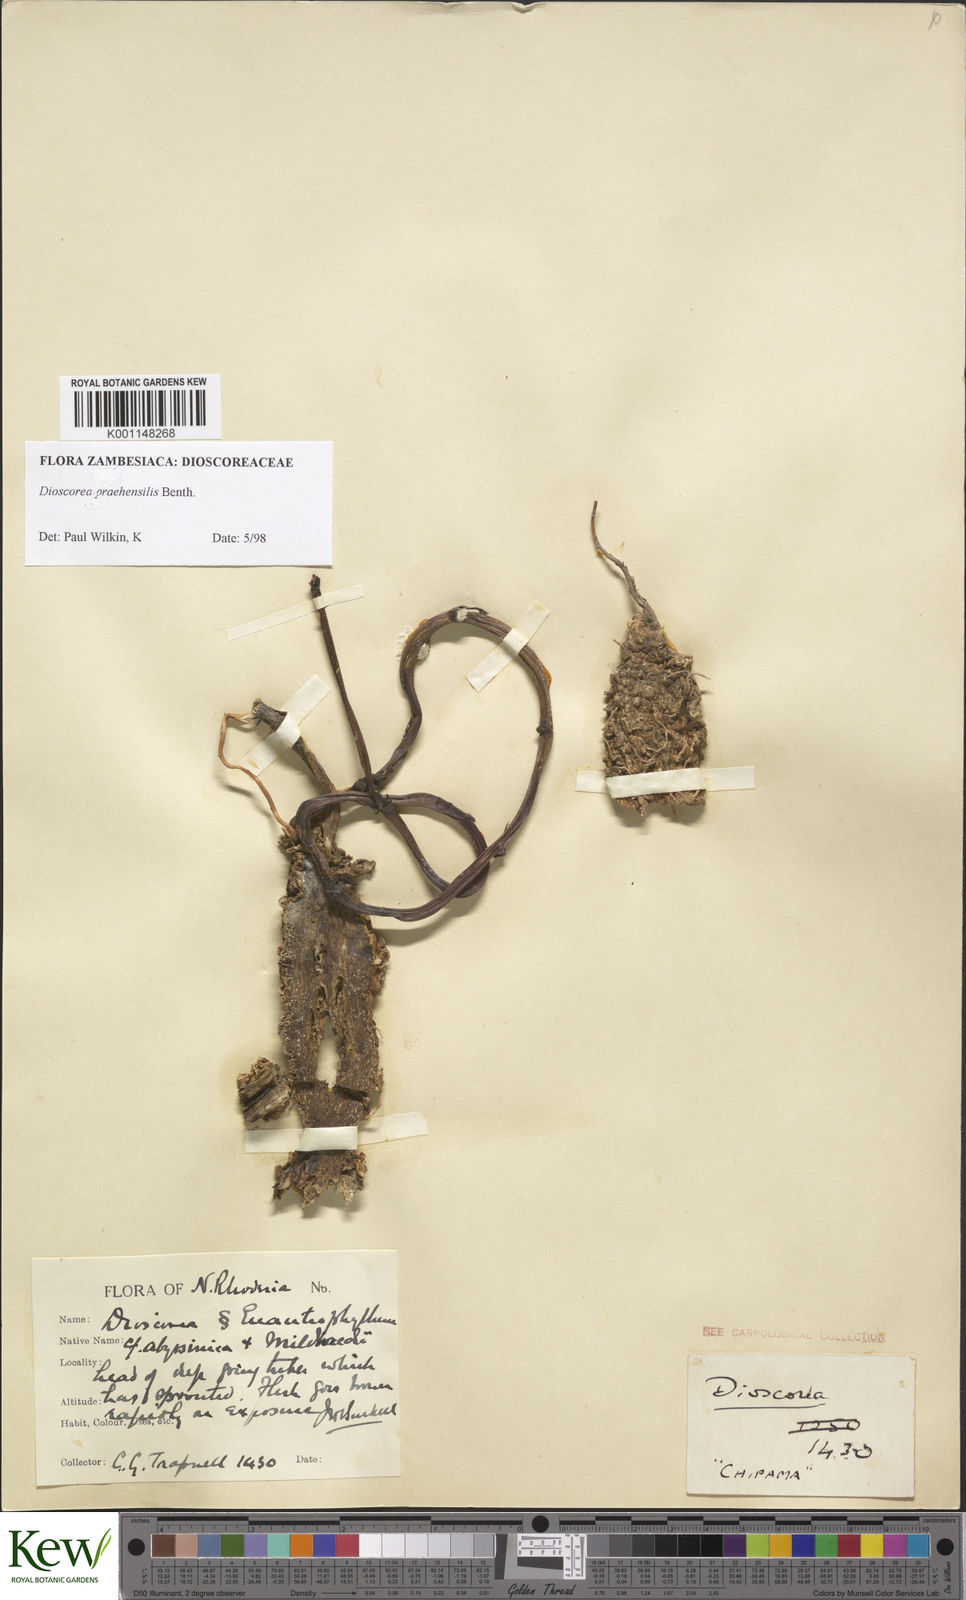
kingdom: Plantae
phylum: Tracheophyta
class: Liliopsida
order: Dioscoreales
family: Dioscoreaceae
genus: Dioscorea
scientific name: Dioscorea praehensilis
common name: Bush yam
